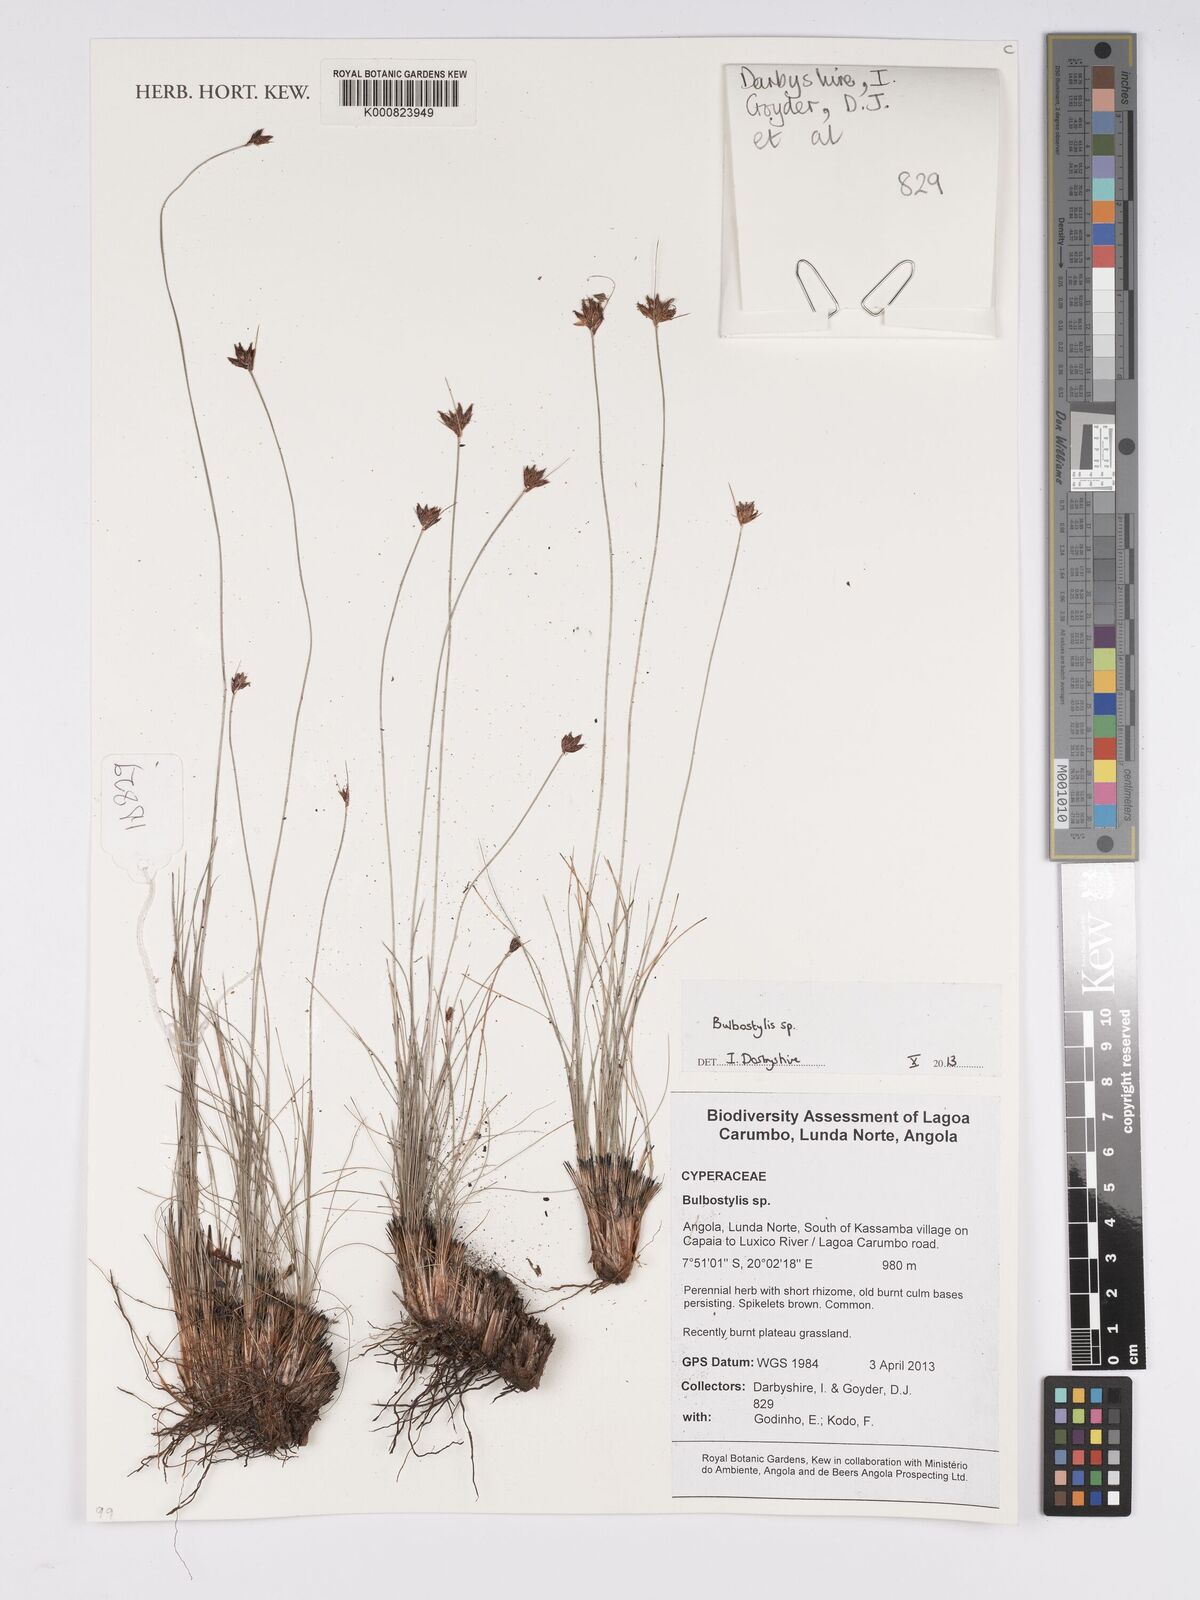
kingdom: Plantae
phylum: Tracheophyta
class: Liliopsida
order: Poales
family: Cyperaceae
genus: Bulbostylis
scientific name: Bulbostylis
